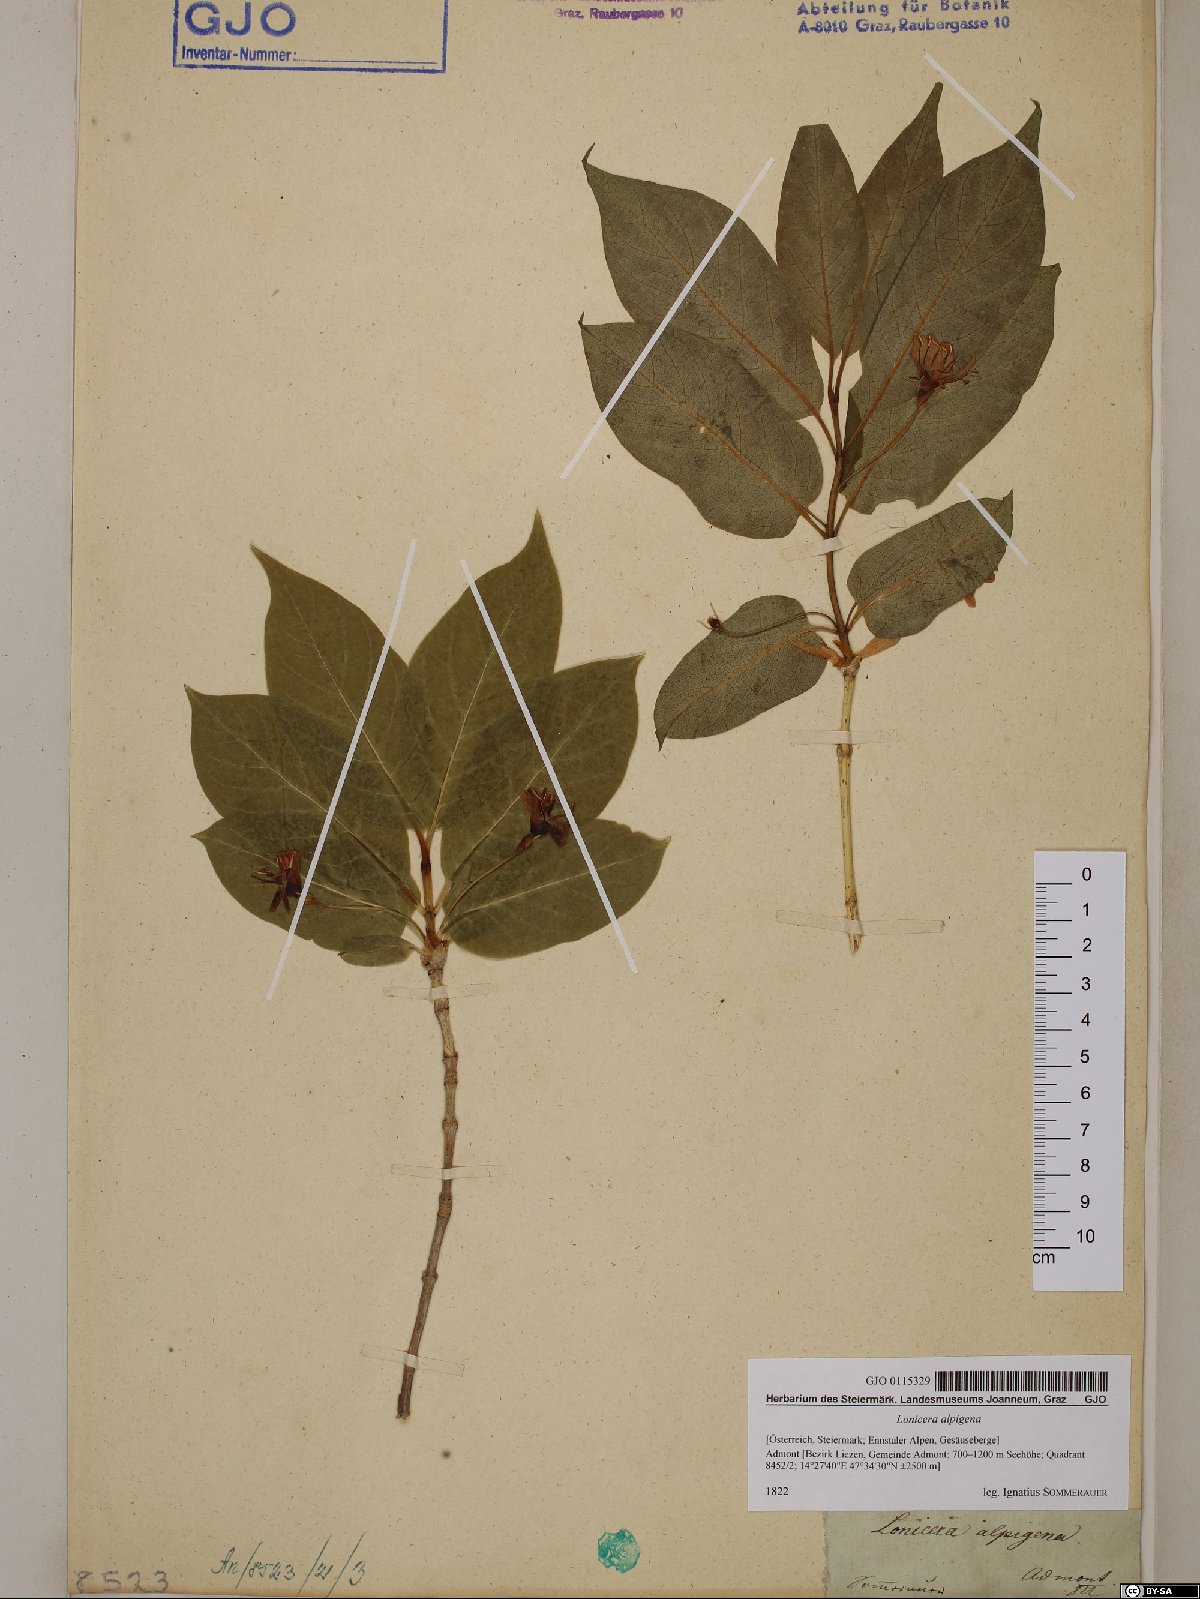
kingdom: Plantae
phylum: Tracheophyta
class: Magnoliopsida
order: Dipsacales
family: Caprifoliaceae
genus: Lonicera
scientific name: Lonicera alpigena
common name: Alpine honeysuckle
